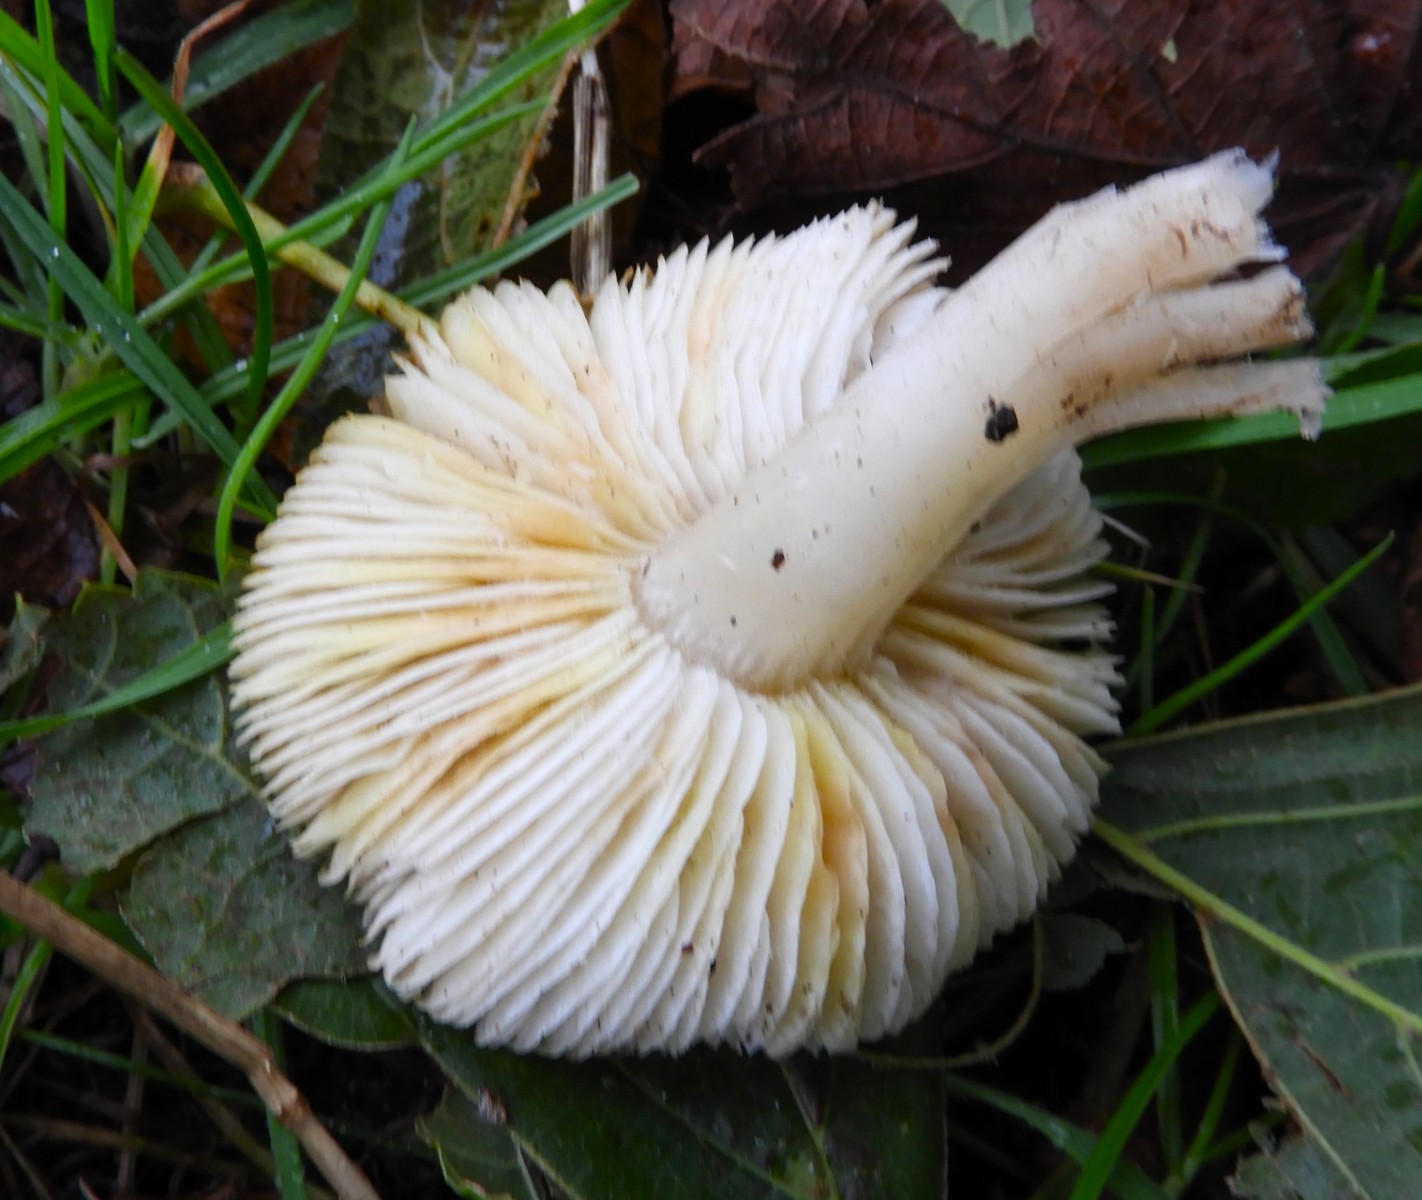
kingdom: Fungi
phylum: Basidiomycota
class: Agaricomycetes
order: Agaricales
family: Tricholomataceae
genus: Tricholoma
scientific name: Tricholoma scalpturatum
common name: gulplettet ridderhat
